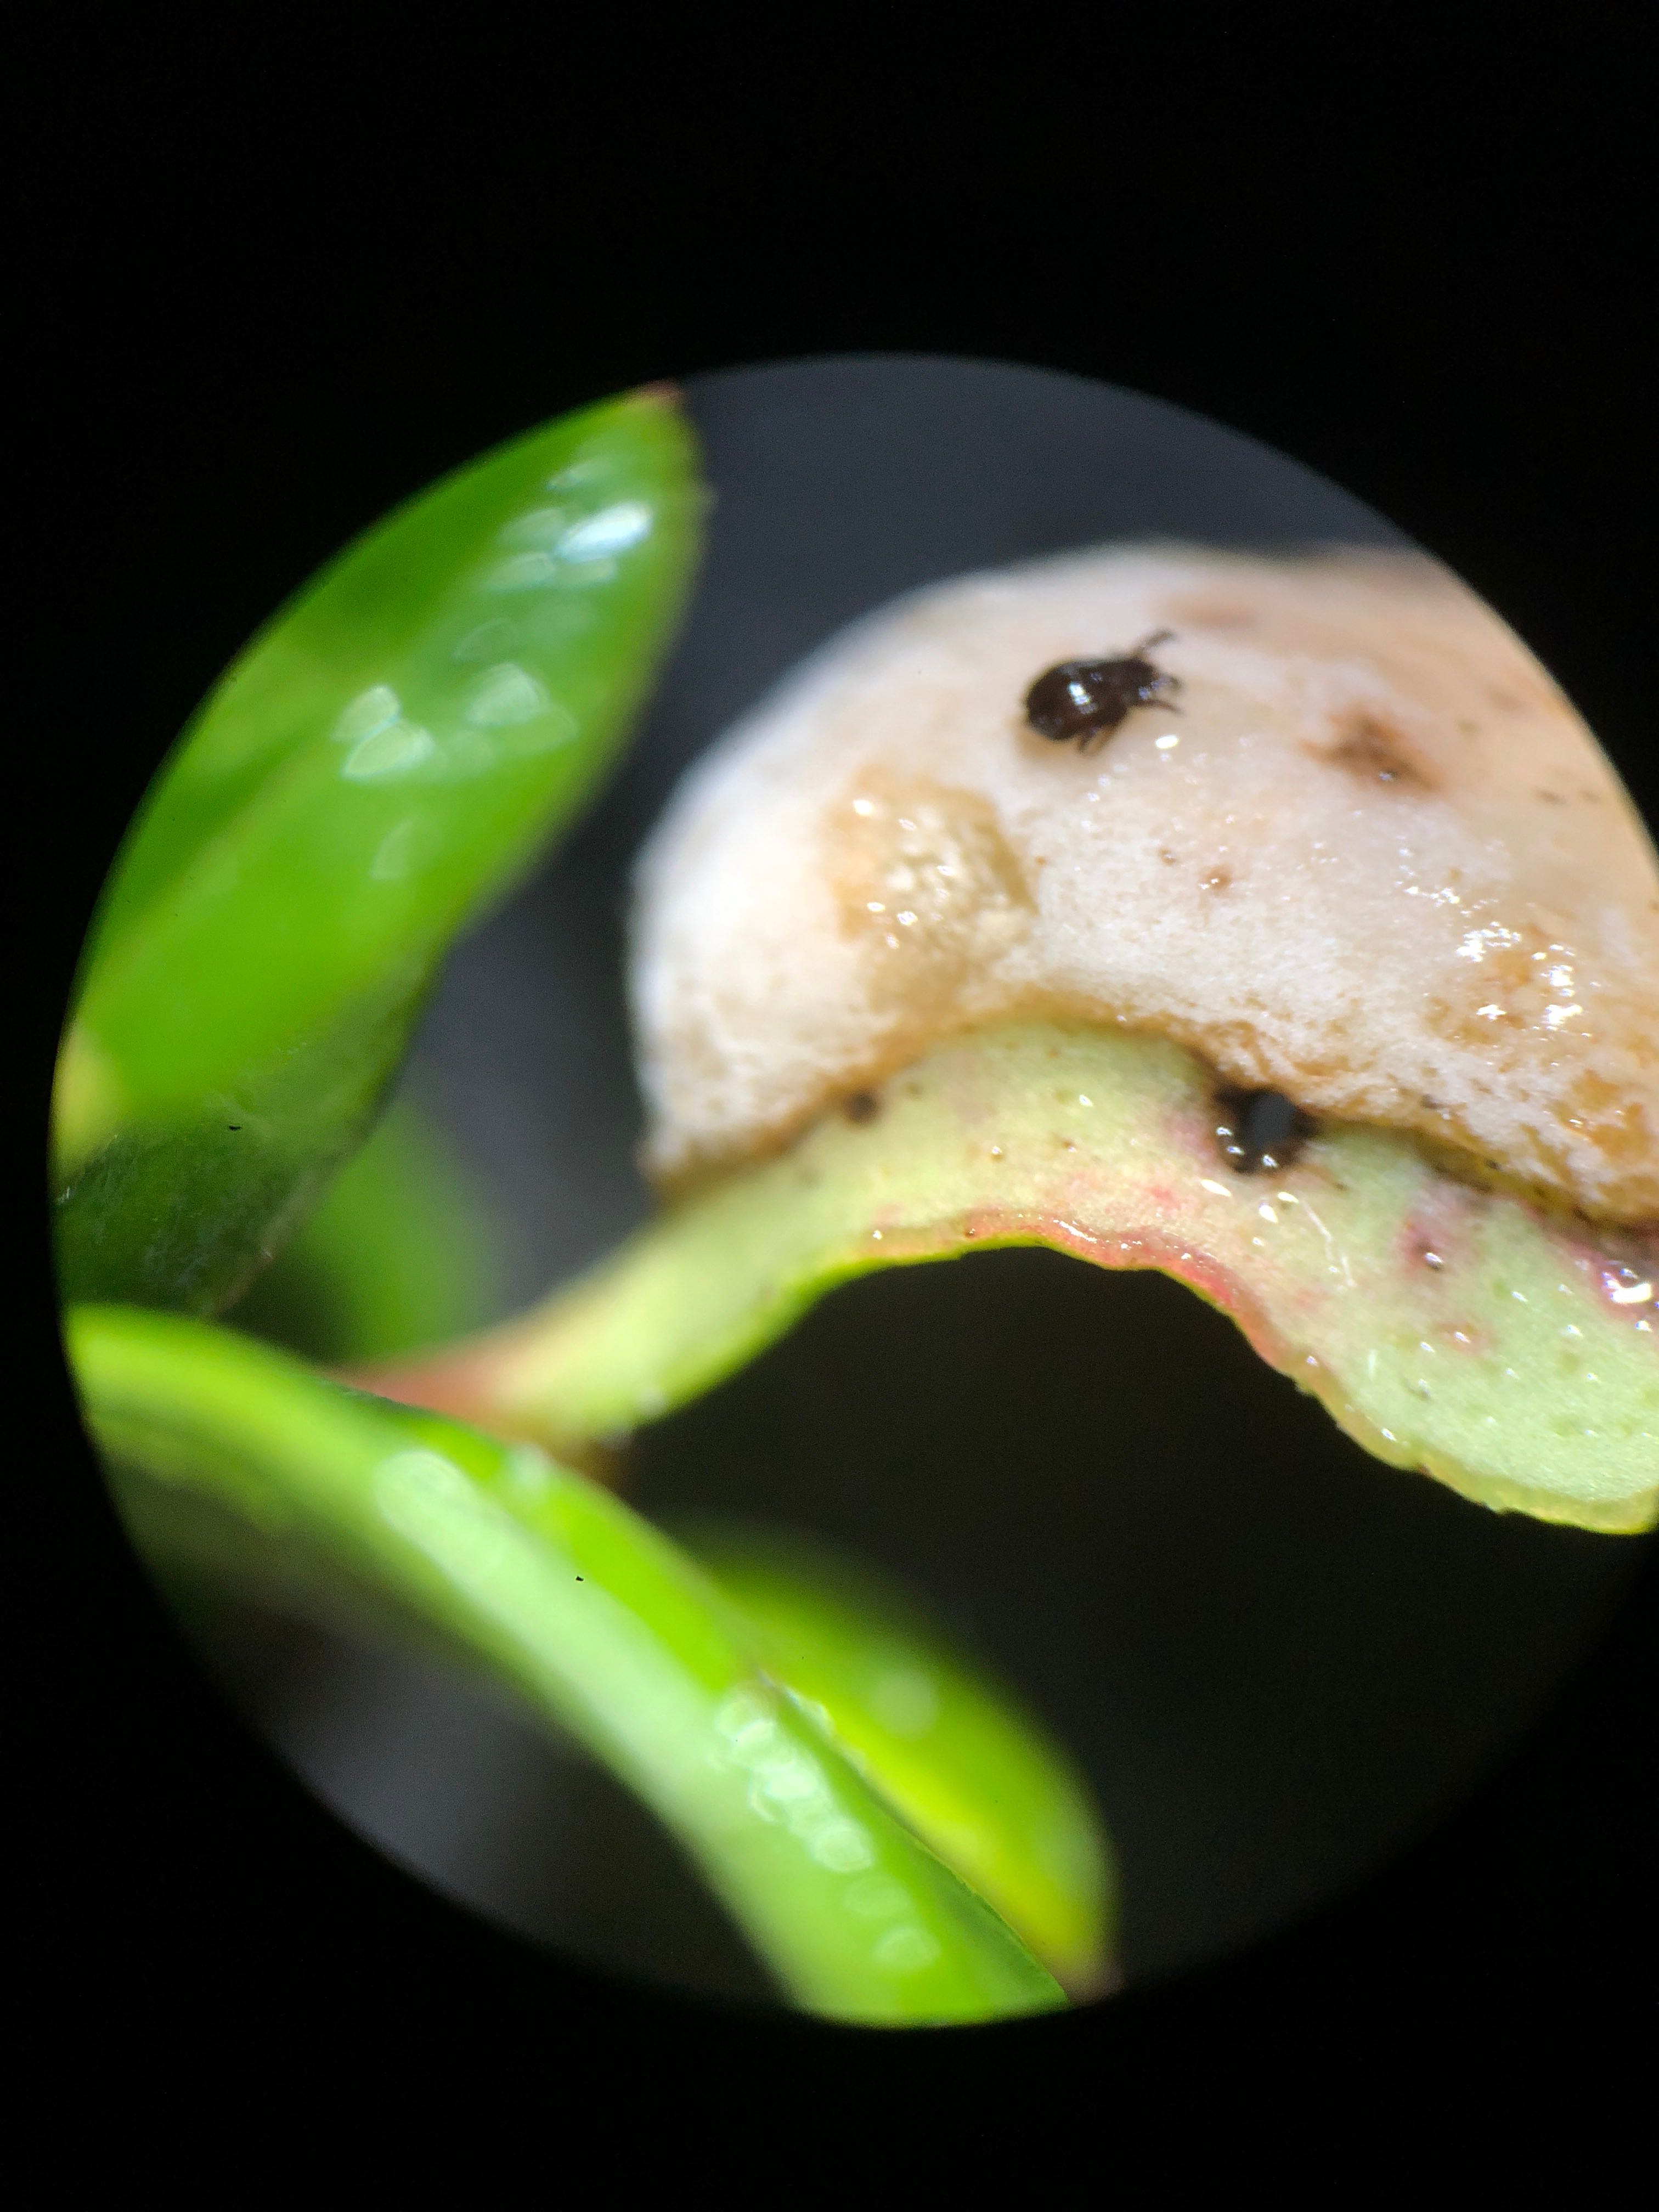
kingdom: Fungi
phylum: Basidiomycota
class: Exobasidiomycetes
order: Exobasidiales
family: Exobasidiaceae
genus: Exobasidium
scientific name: Exobasidium vaccinii
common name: tyttebærblad-bøllesvamp
